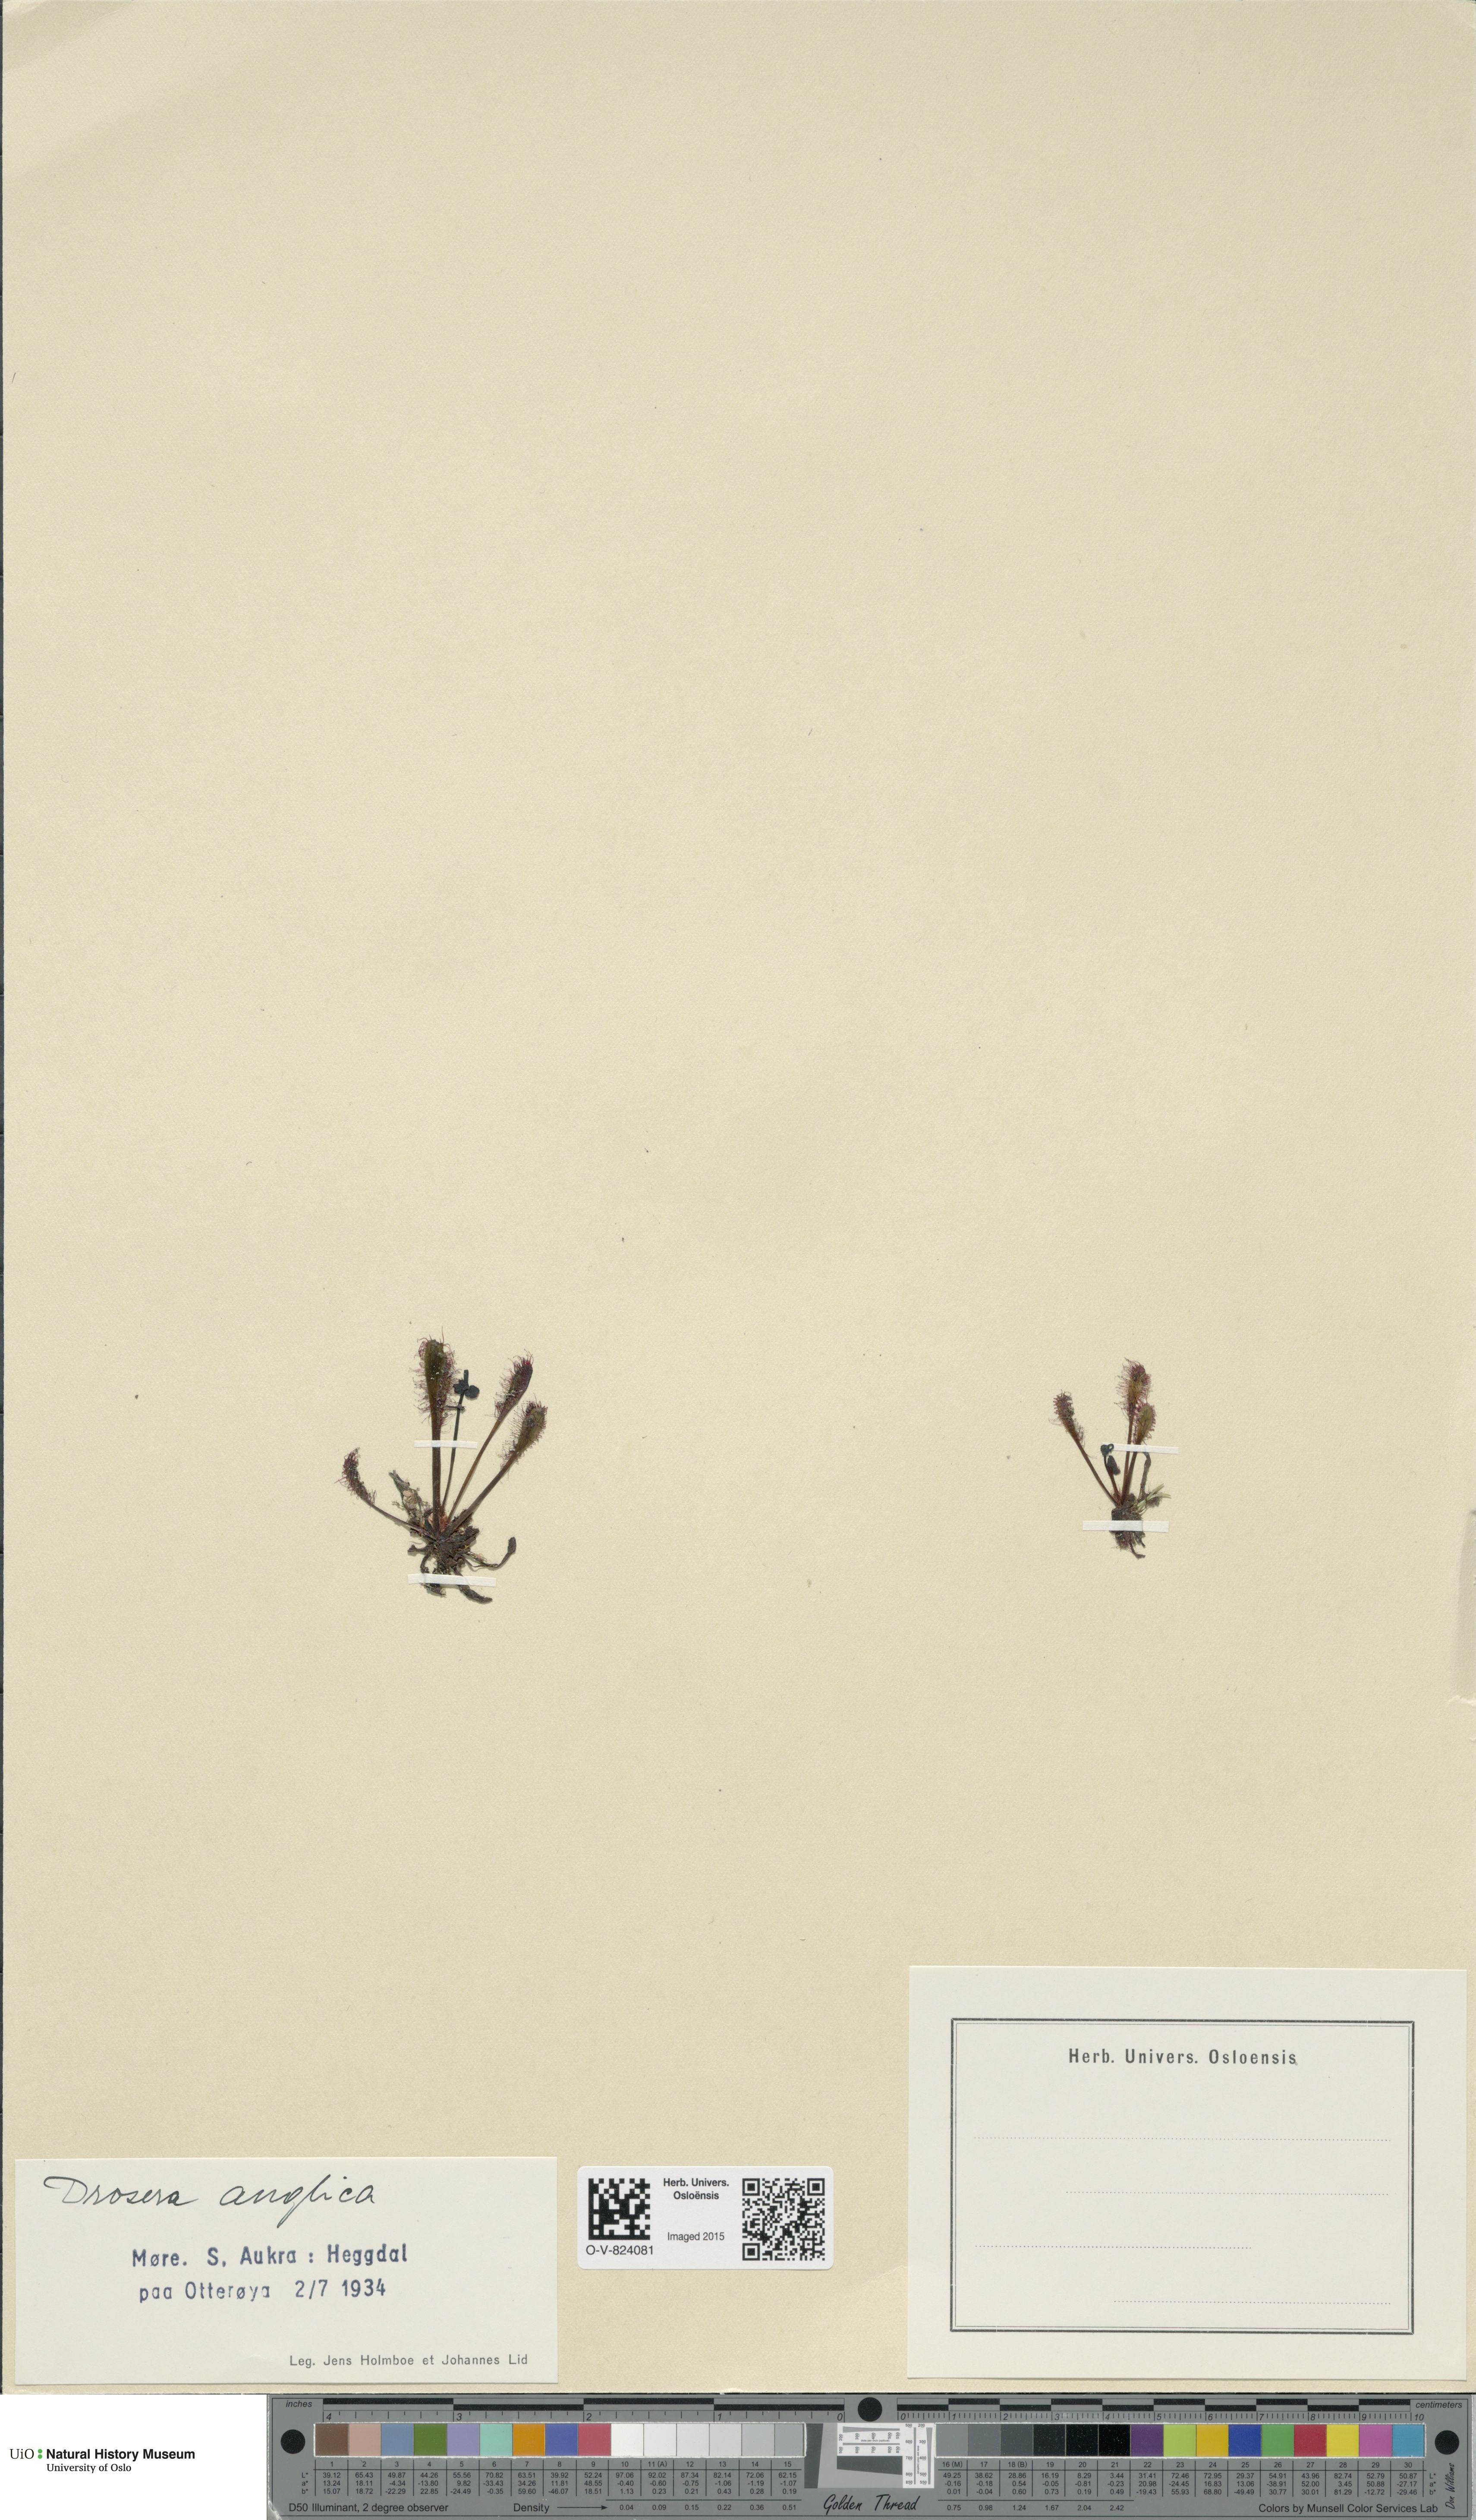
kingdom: Plantae
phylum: Tracheophyta
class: Magnoliopsida
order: Caryophyllales
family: Droseraceae
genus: Drosera
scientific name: Drosera anglica
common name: Great sundew
